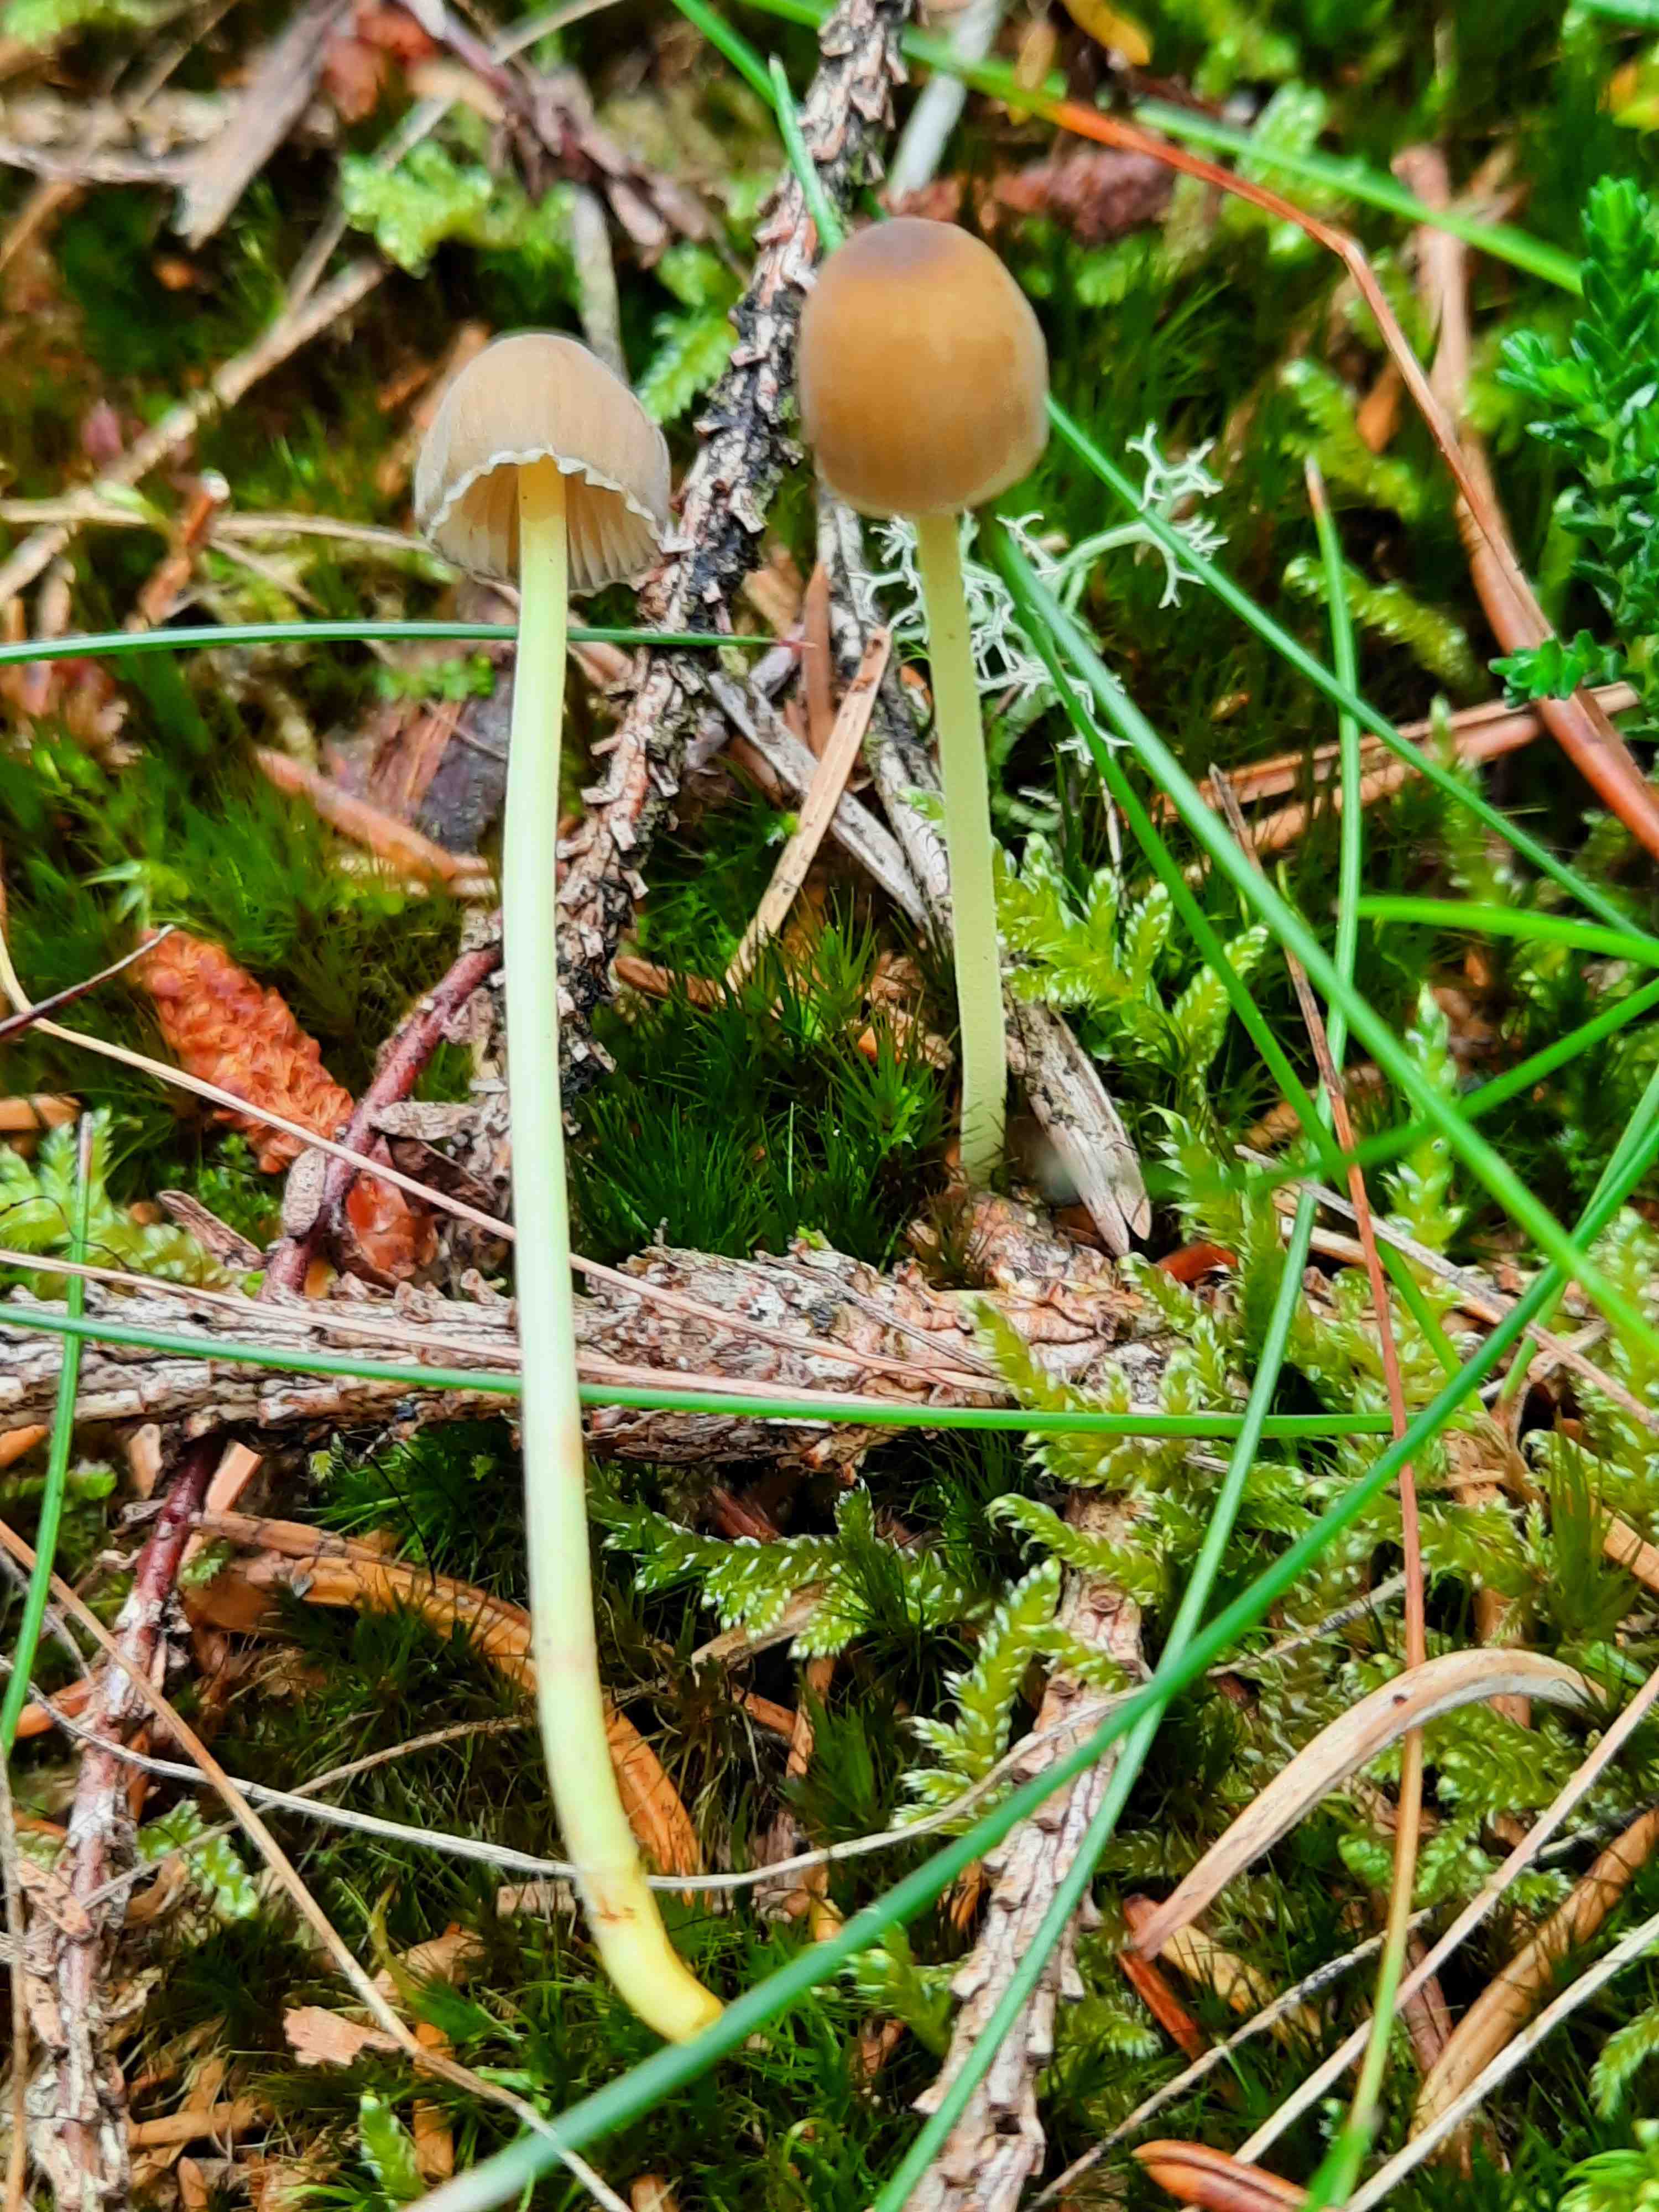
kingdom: Fungi
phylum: Basidiomycota
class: Agaricomycetes
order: Agaricales
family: Mycenaceae
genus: Mycena
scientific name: Mycena epipterygia
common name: gulstokket huesvamp
